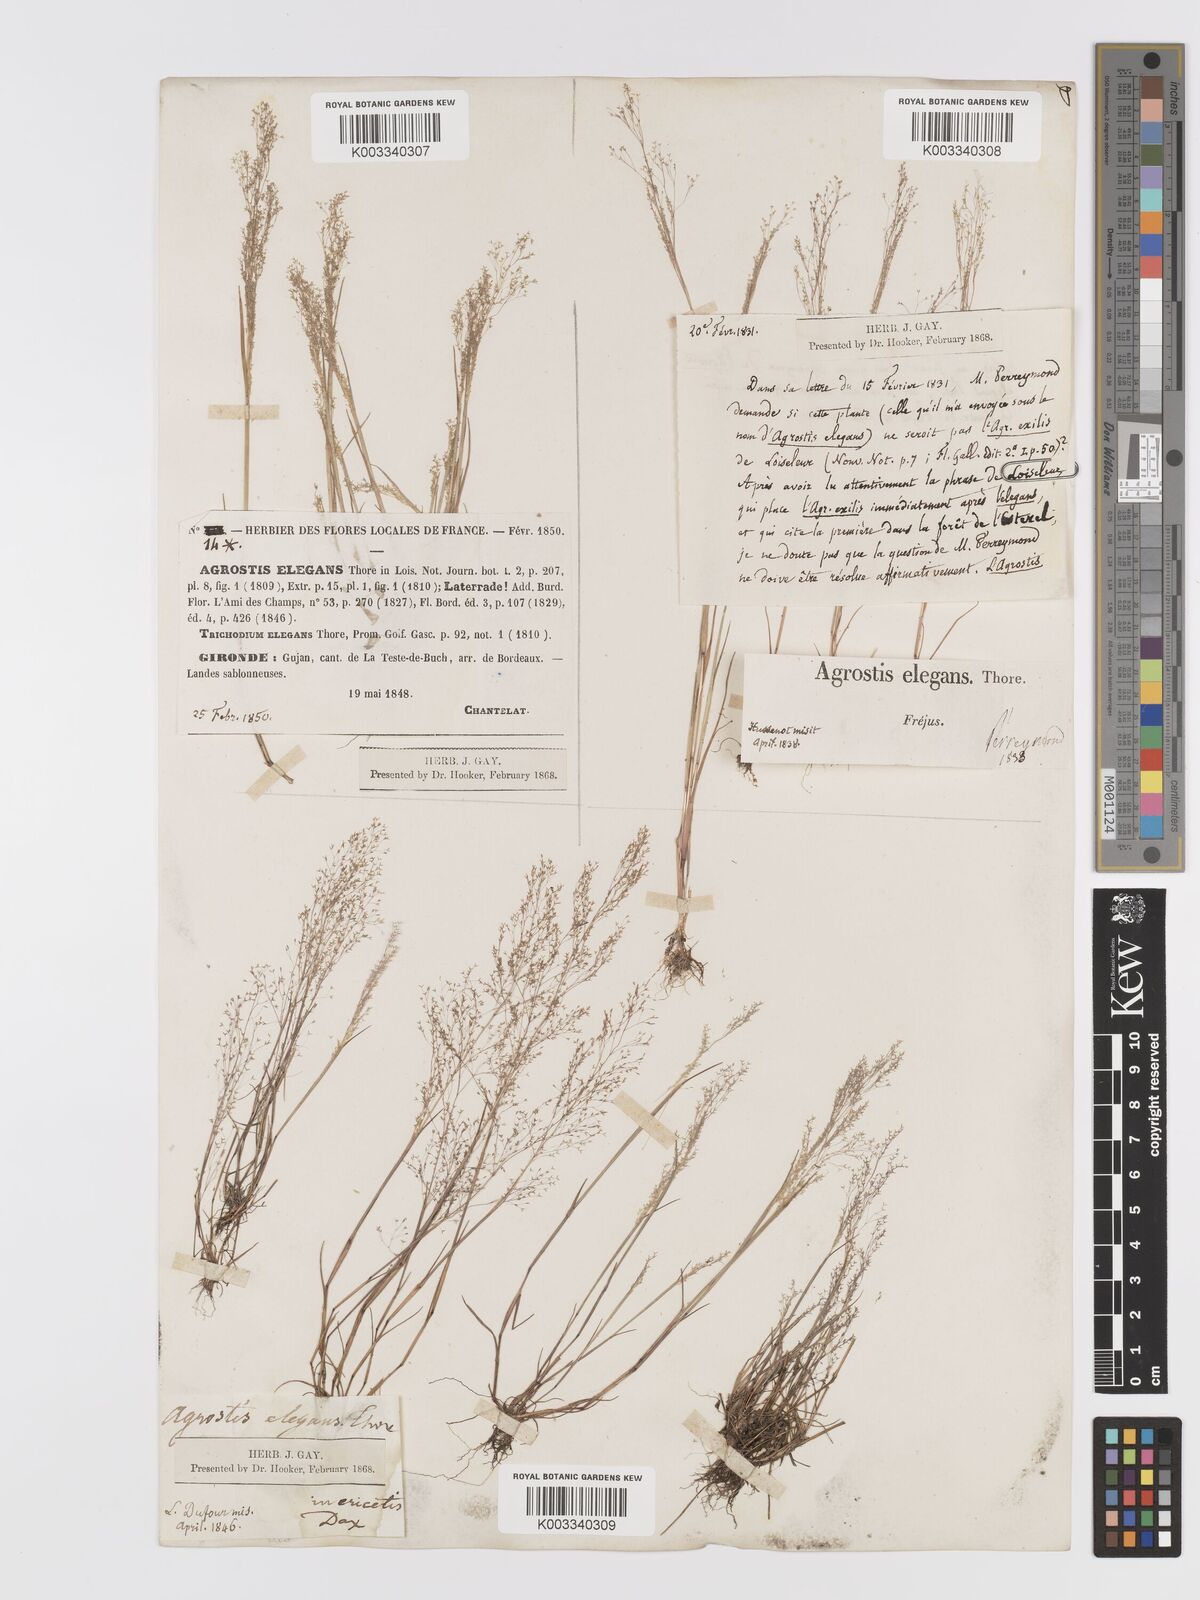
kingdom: Plantae
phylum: Tracheophyta
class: Liliopsida
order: Poales
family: Poaceae
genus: Agrostis
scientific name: Agrostis tenerrima
